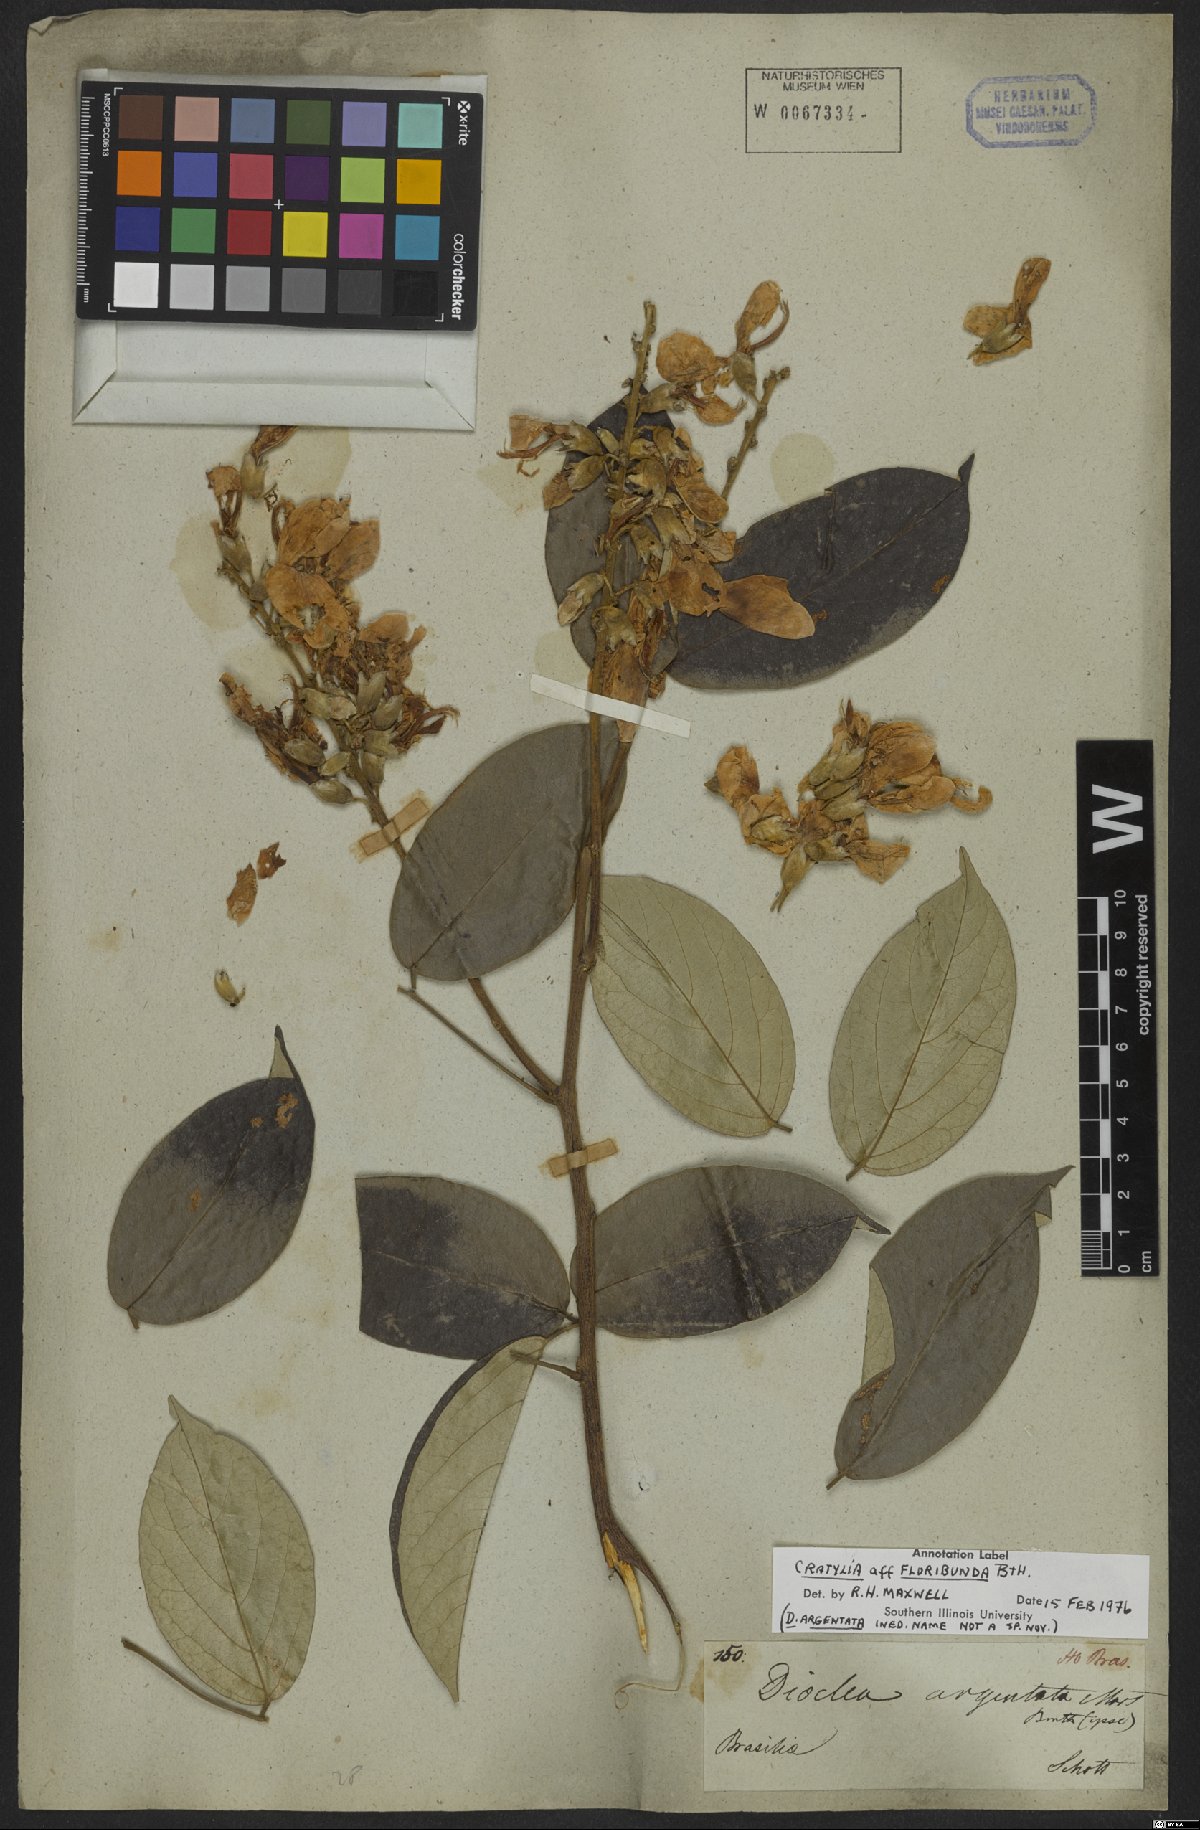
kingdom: Plantae
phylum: Tracheophyta
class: Magnoliopsida
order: Fabales
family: Fabaceae
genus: Cratylia
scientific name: Cratylia argentea
